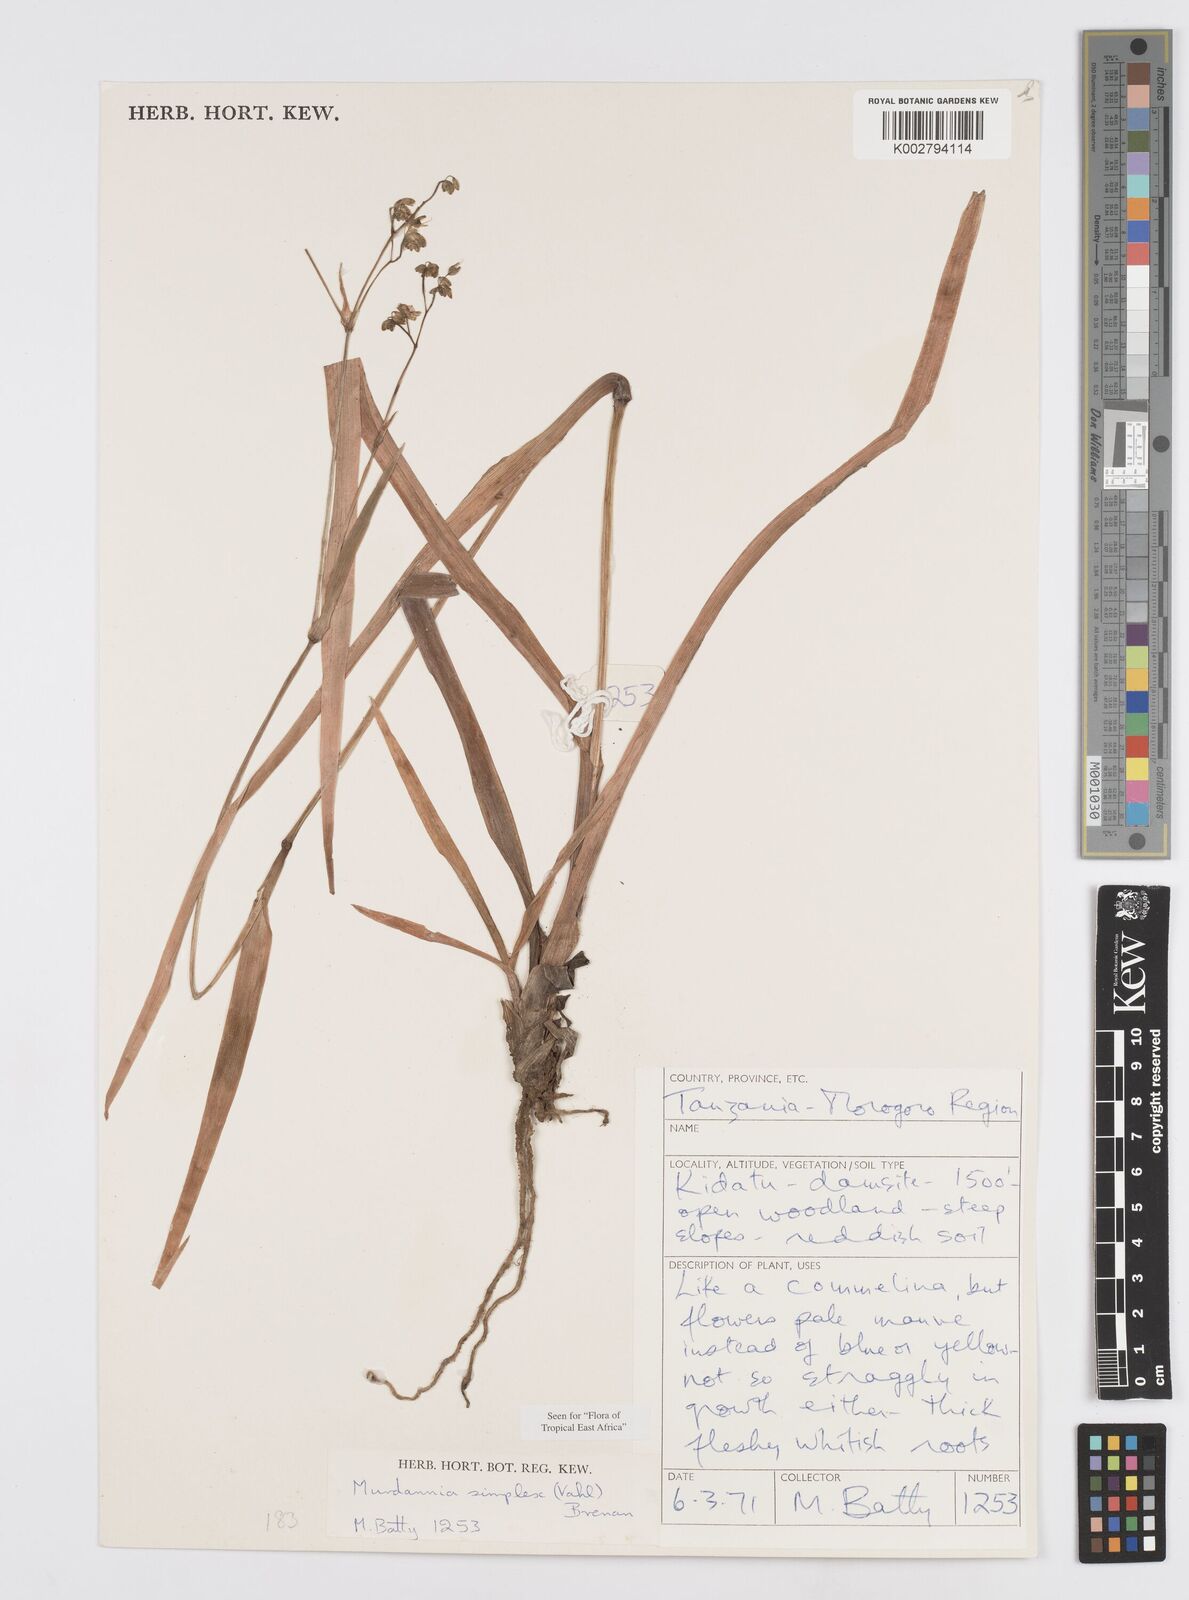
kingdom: Plantae
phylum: Tracheophyta
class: Liliopsida
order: Commelinales
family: Commelinaceae
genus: Murdannia
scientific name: Murdannia simplex
